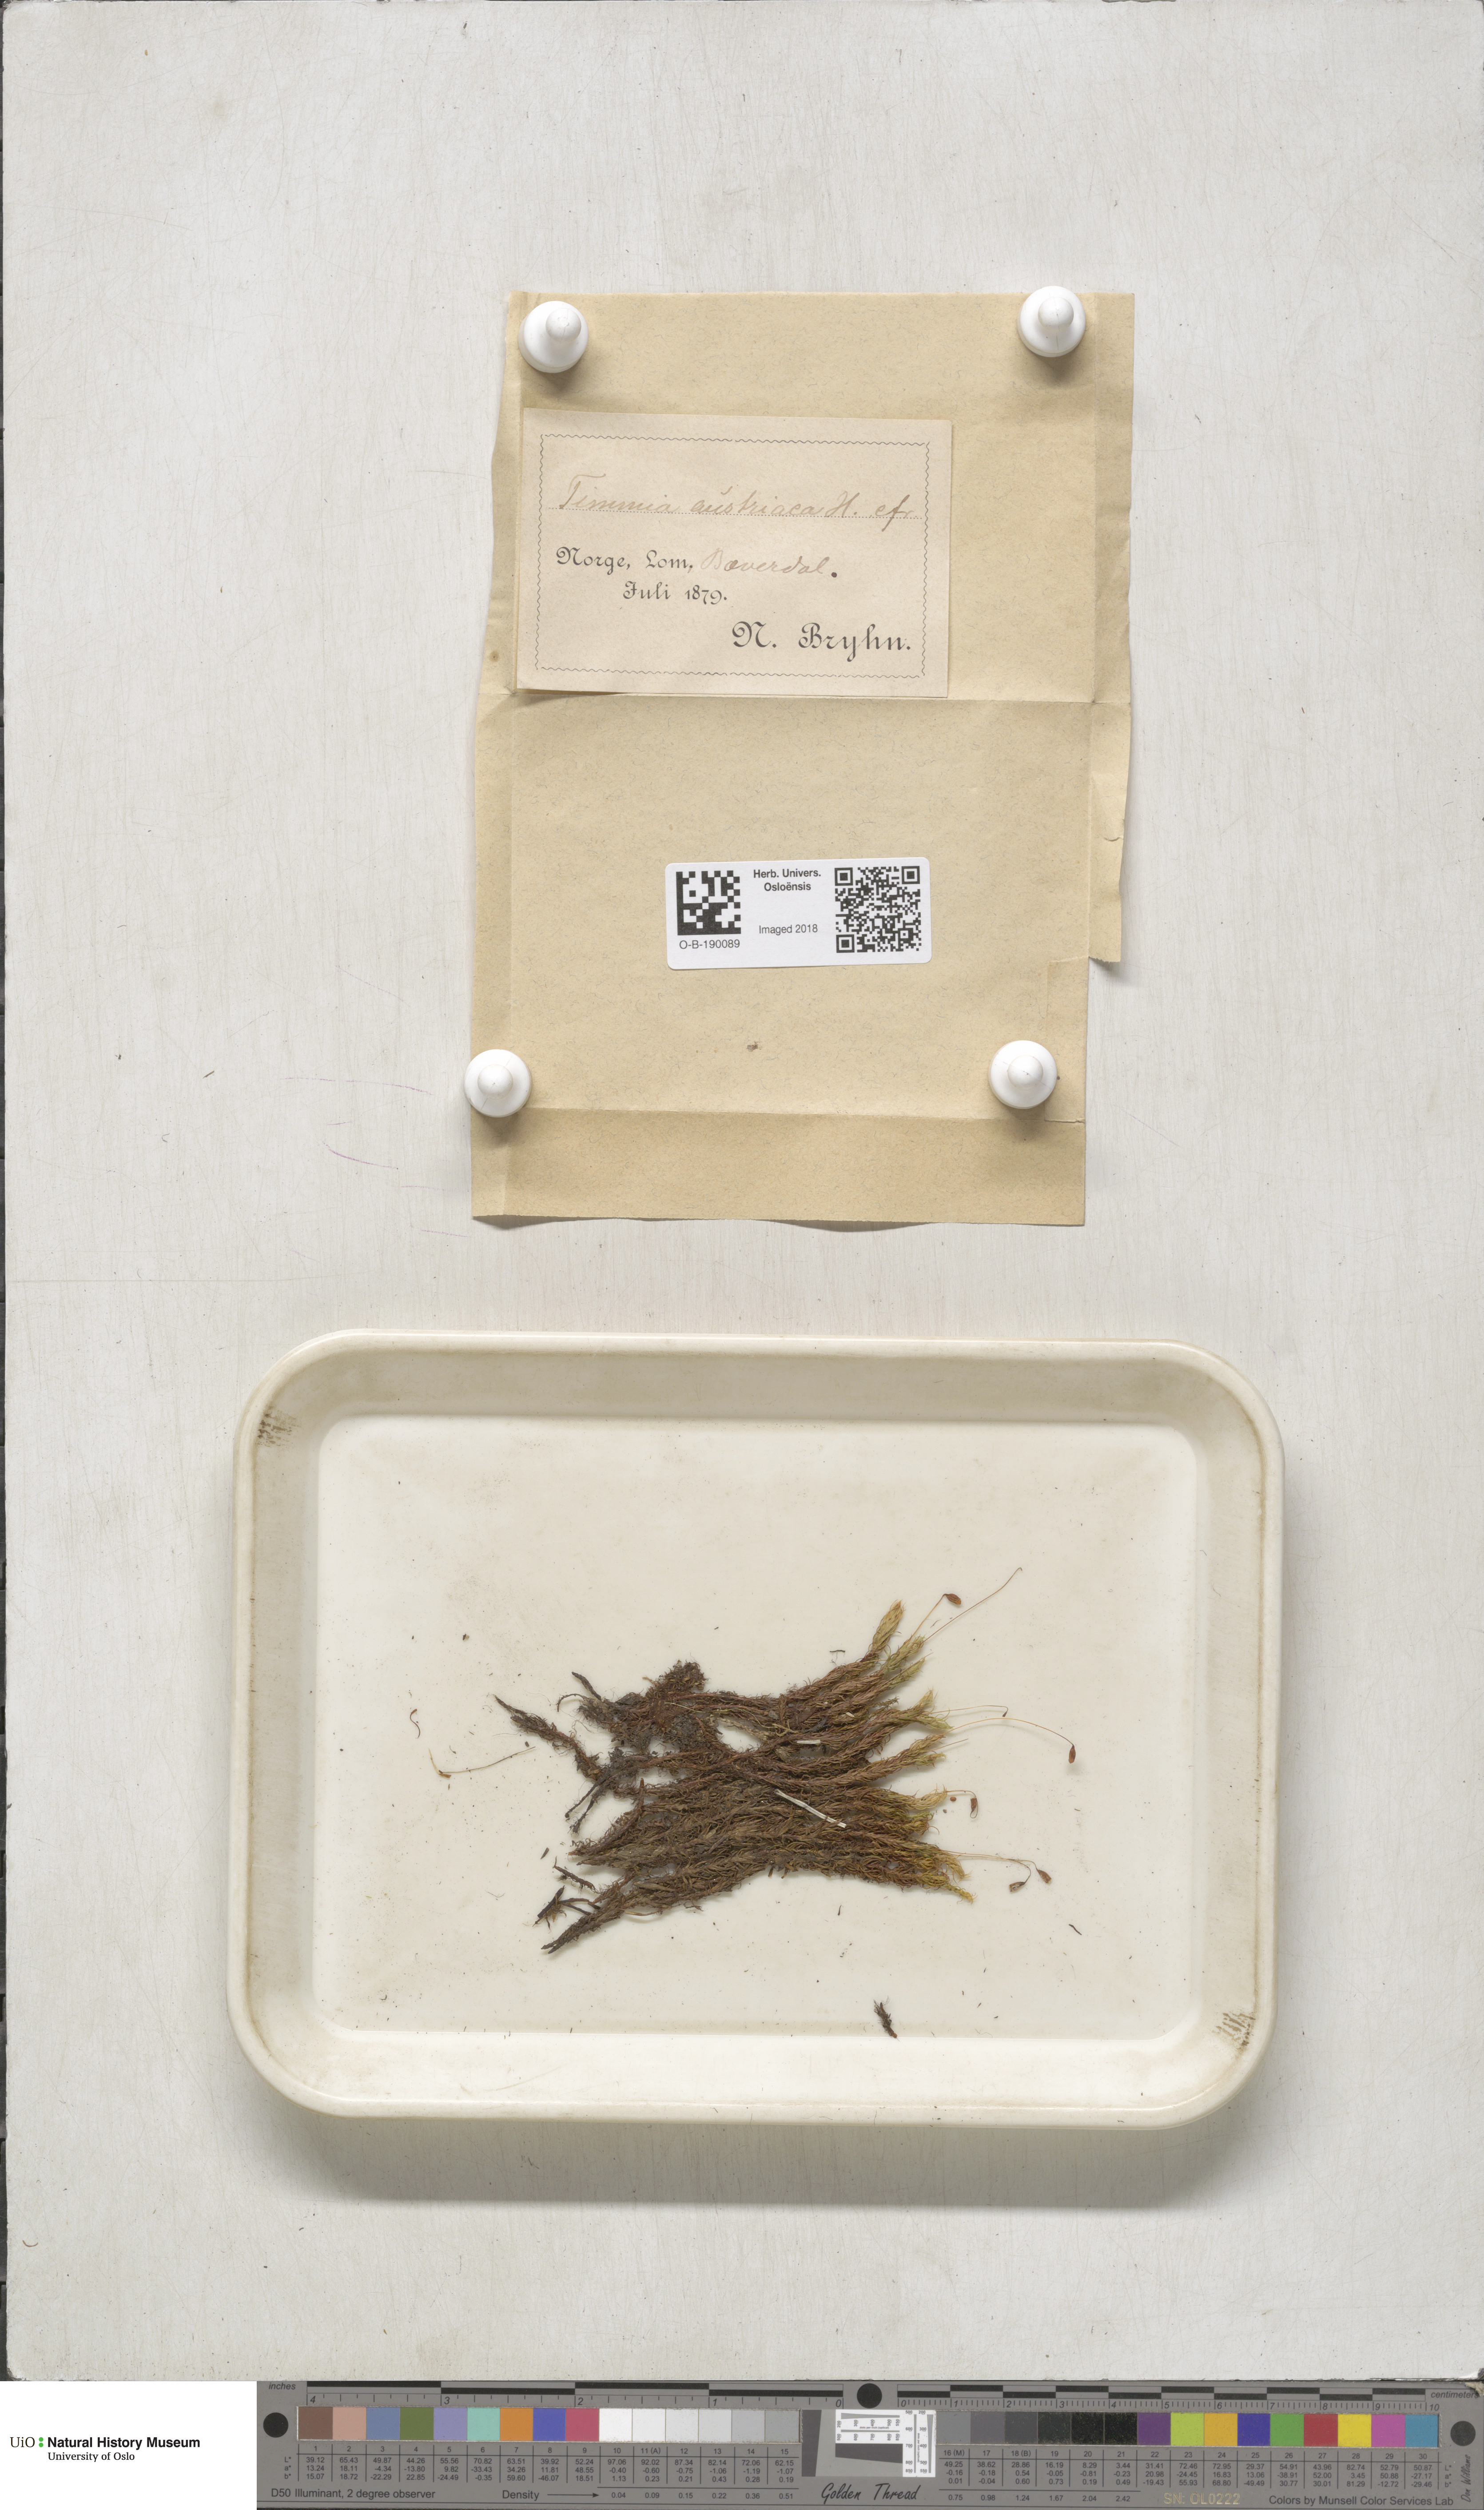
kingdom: Plantae
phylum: Bryophyta
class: Bryopsida
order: Timmiales
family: Timmiaceae
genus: Timmia
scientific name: Timmia austriaca
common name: Austrian timmia
